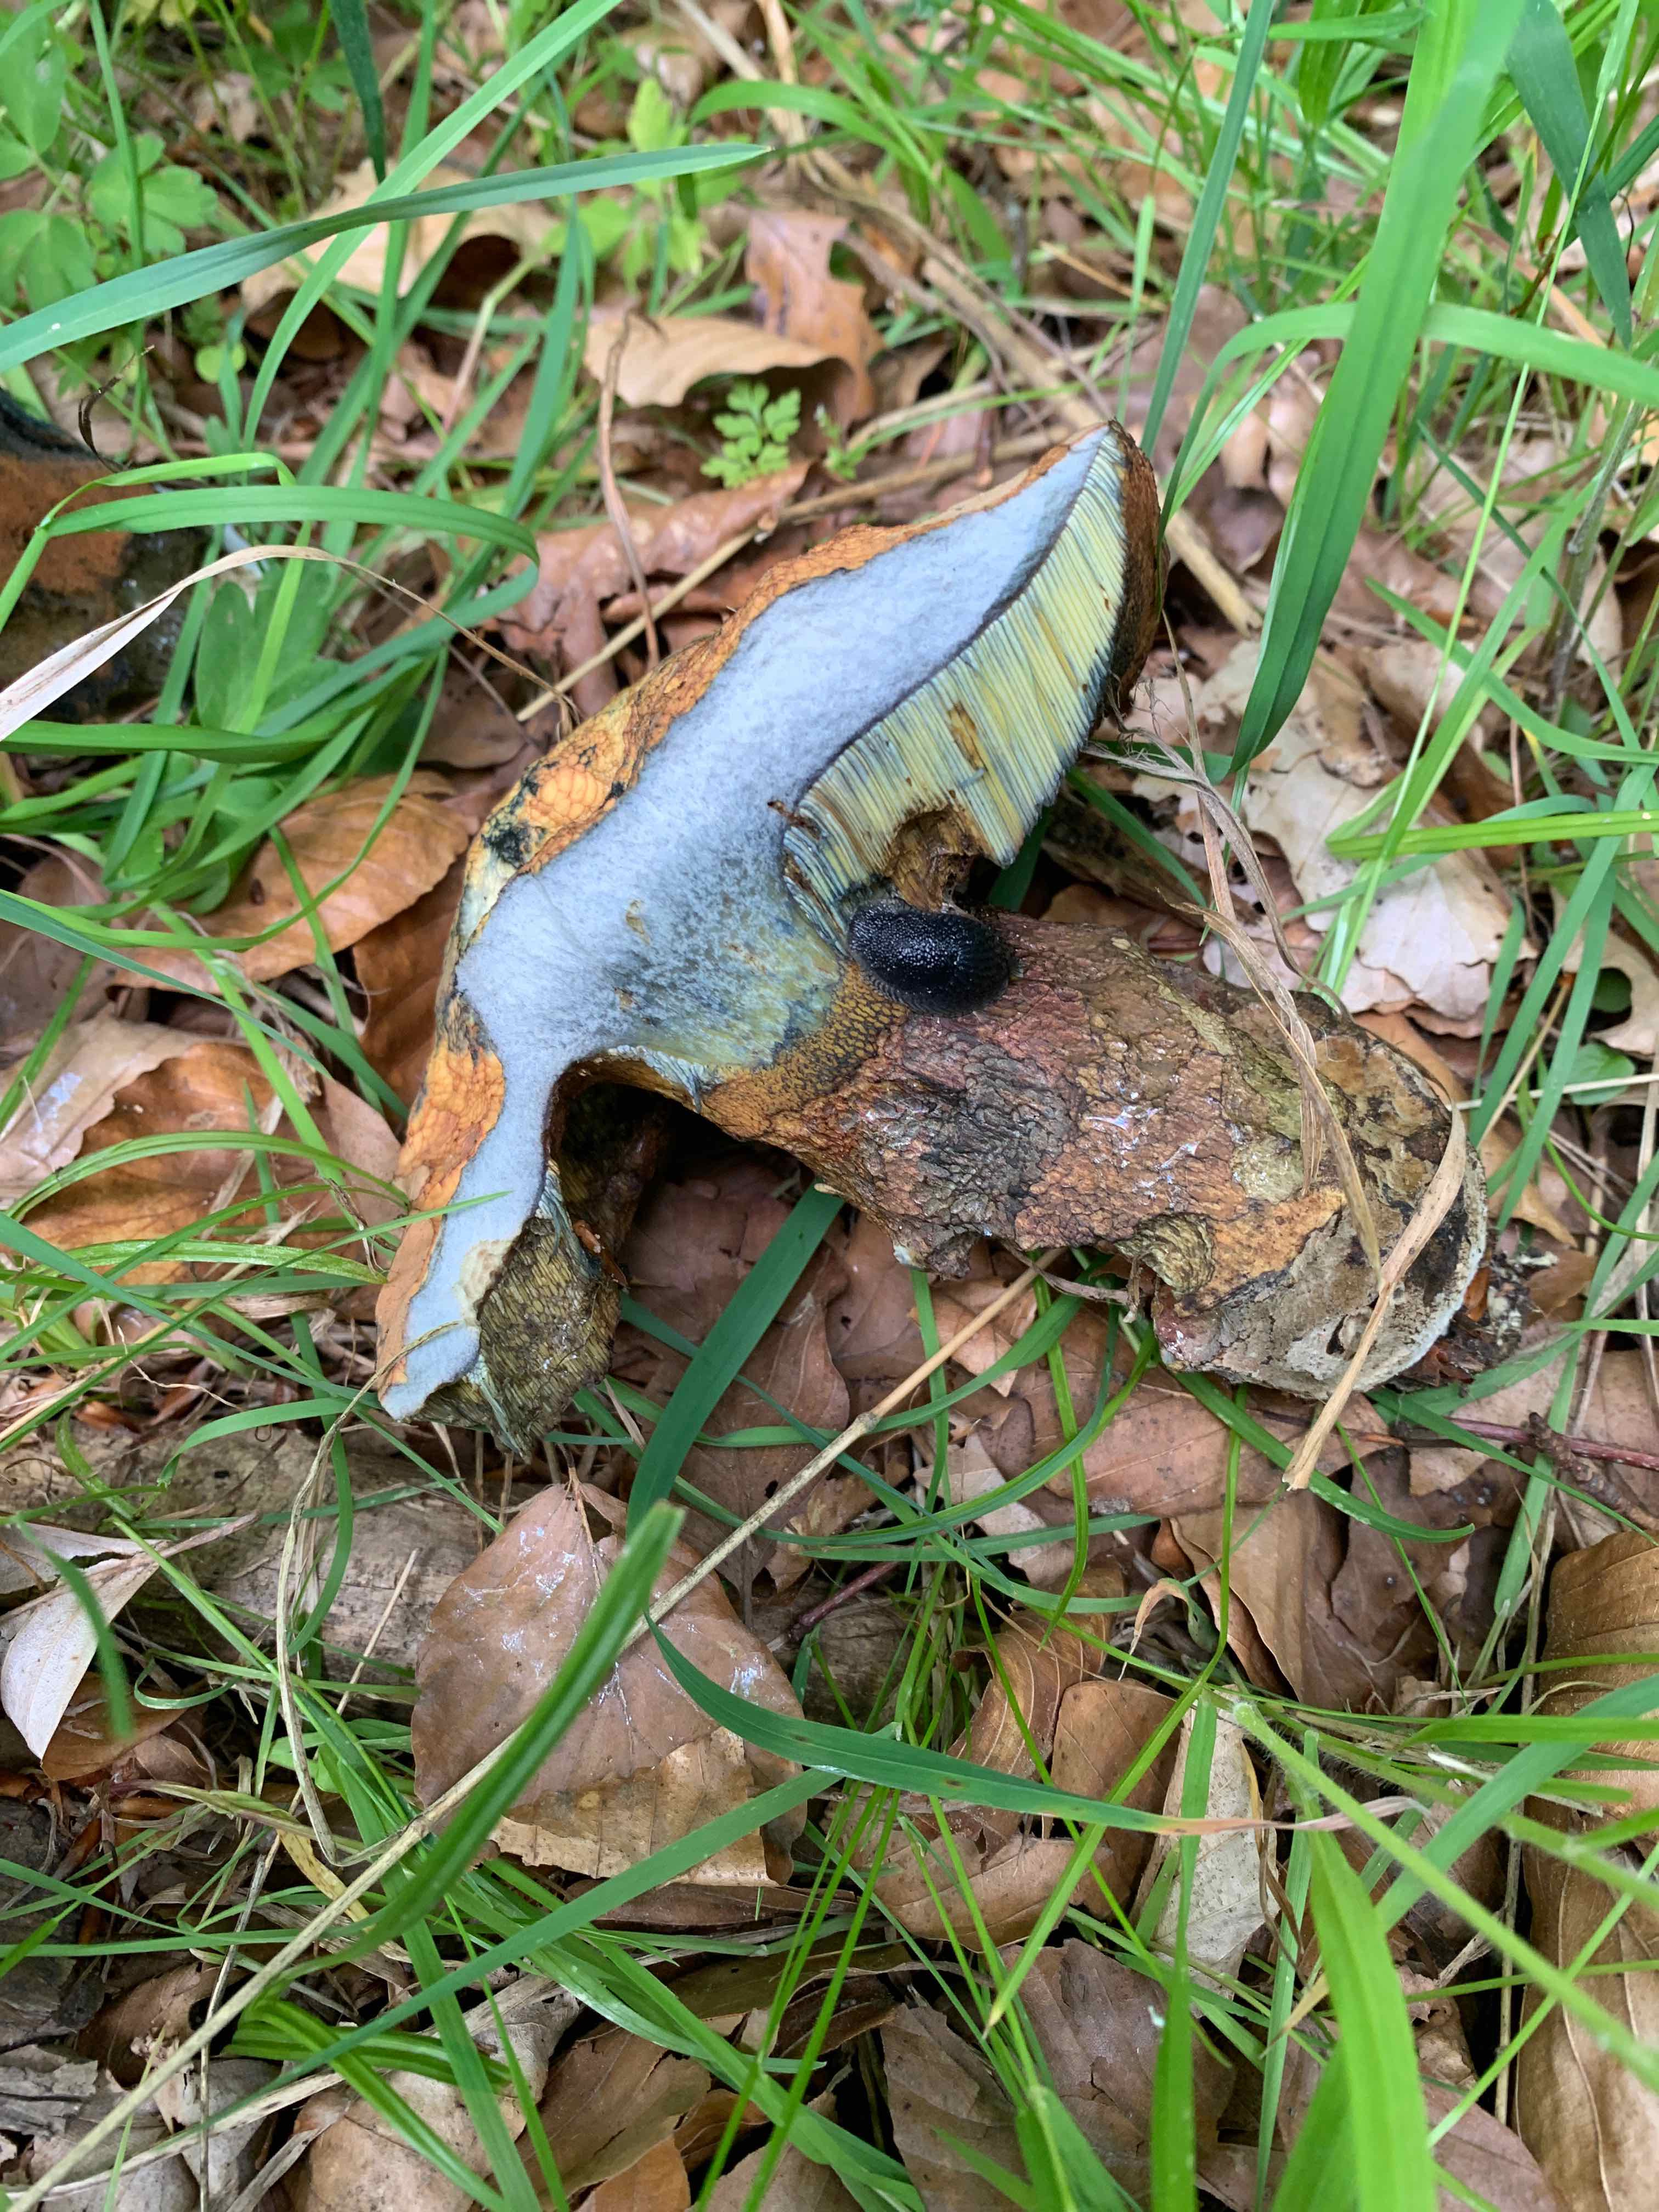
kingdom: Fungi
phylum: Basidiomycota
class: Agaricomycetes
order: Boletales
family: Boletaceae
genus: Suillellus
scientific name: Suillellus luridus
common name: netstokket indigorørhat
